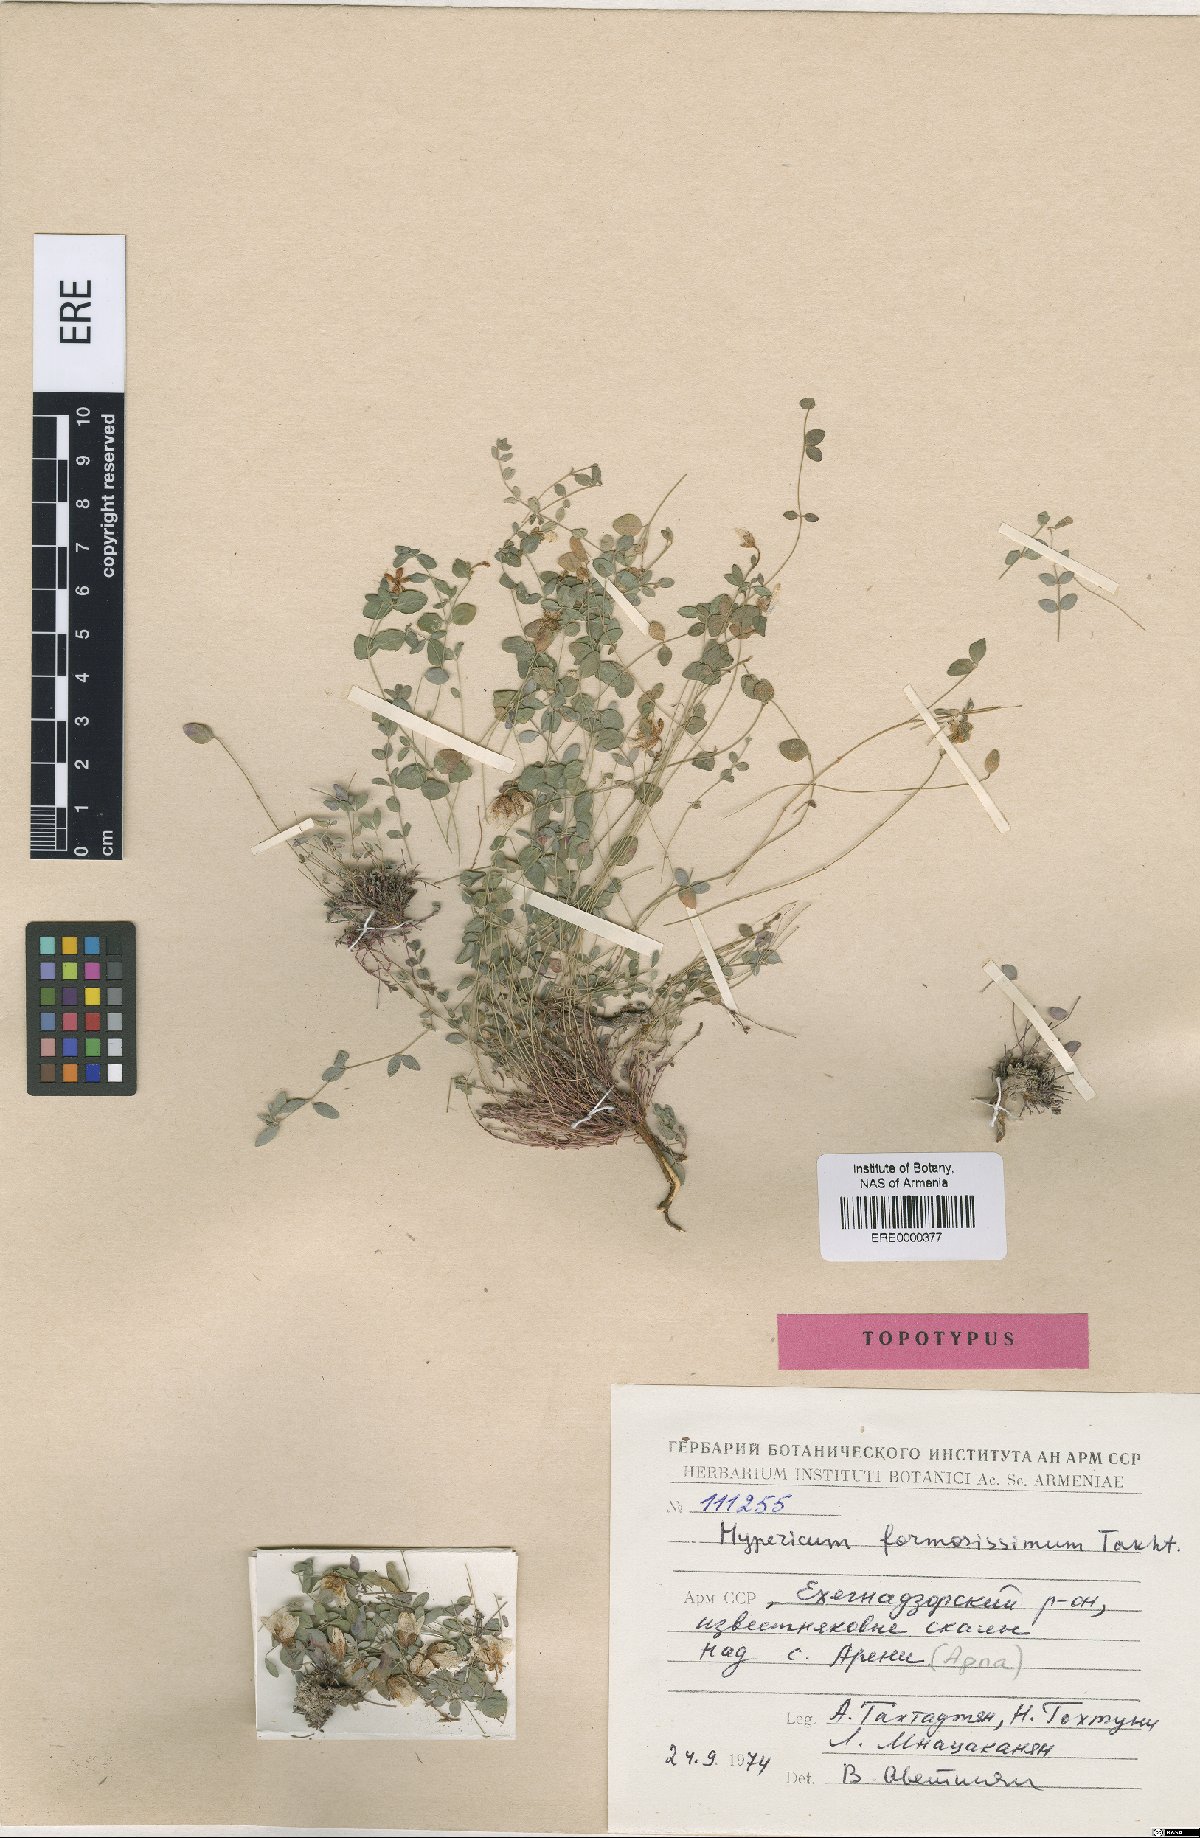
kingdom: Plantae
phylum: Tracheophyta
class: Magnoliopsida
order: Malpighiales
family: Hypericaceae
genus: Hypericum
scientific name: Hypericum formosissimum
